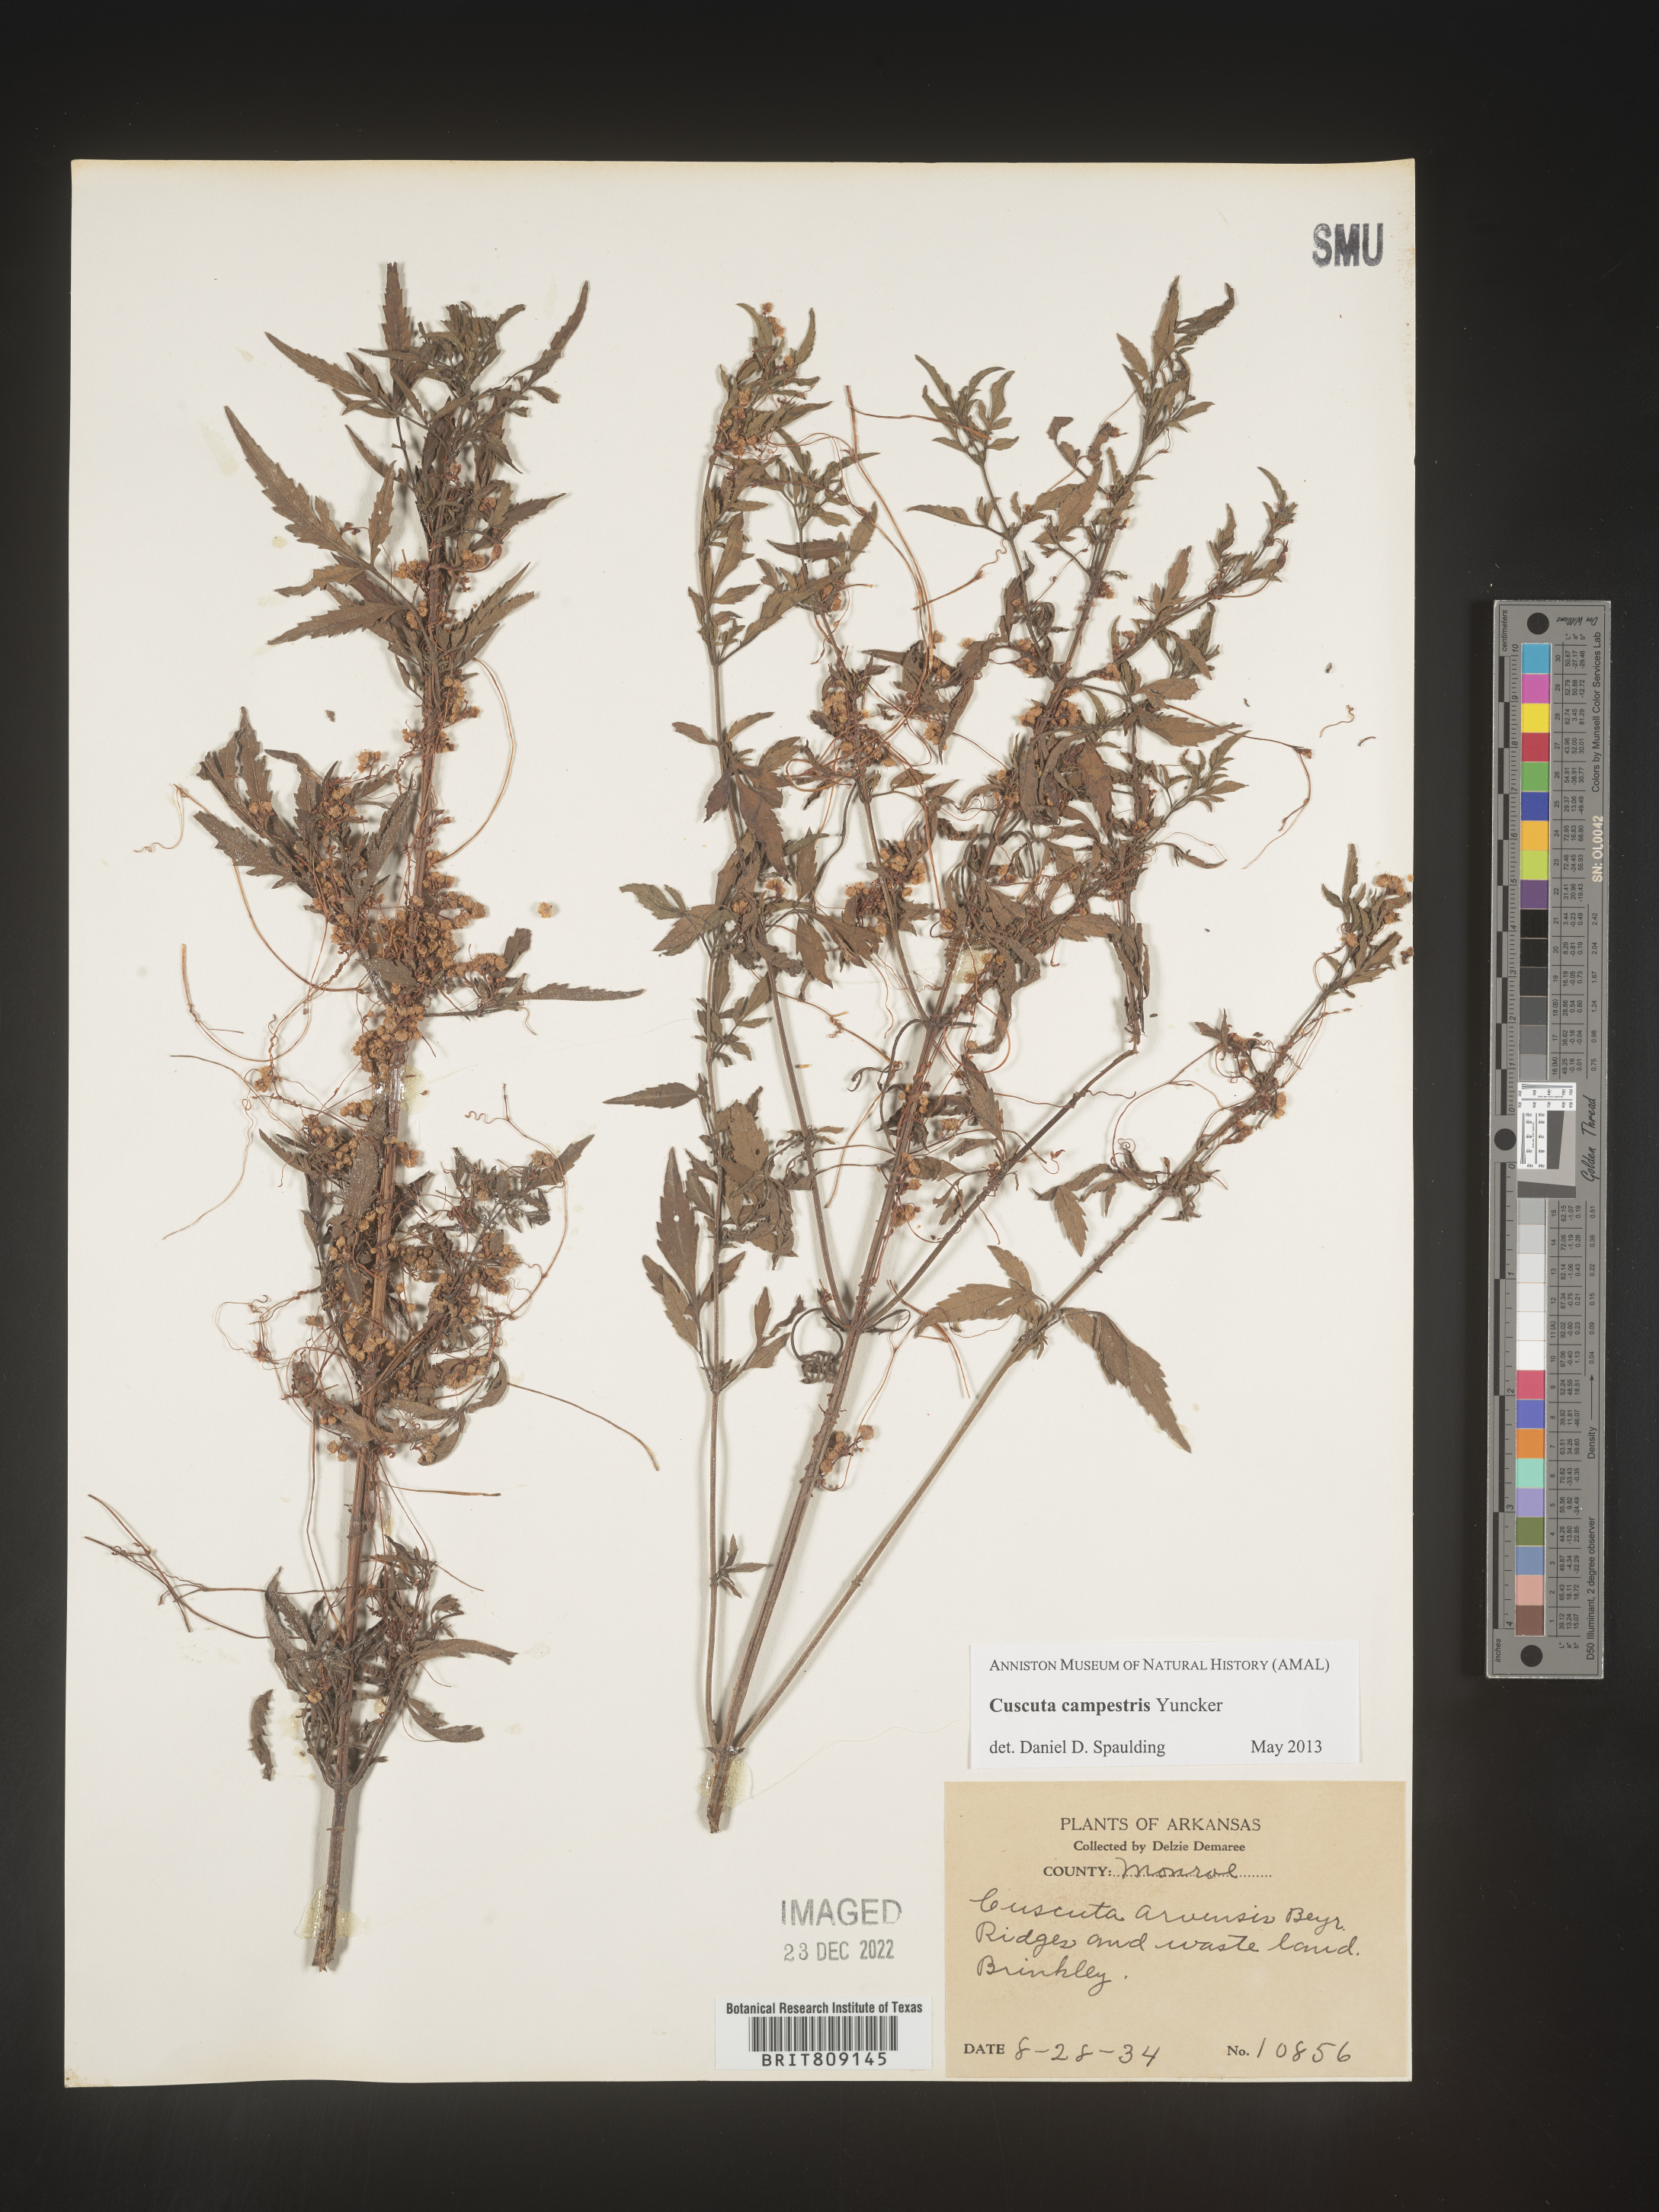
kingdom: Plantae
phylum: Tracheophyta
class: Magnoliopsida
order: Solanales
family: Convolvulaceae
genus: Cuscuta
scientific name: Cuscuta campestris
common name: Yellow dodder
